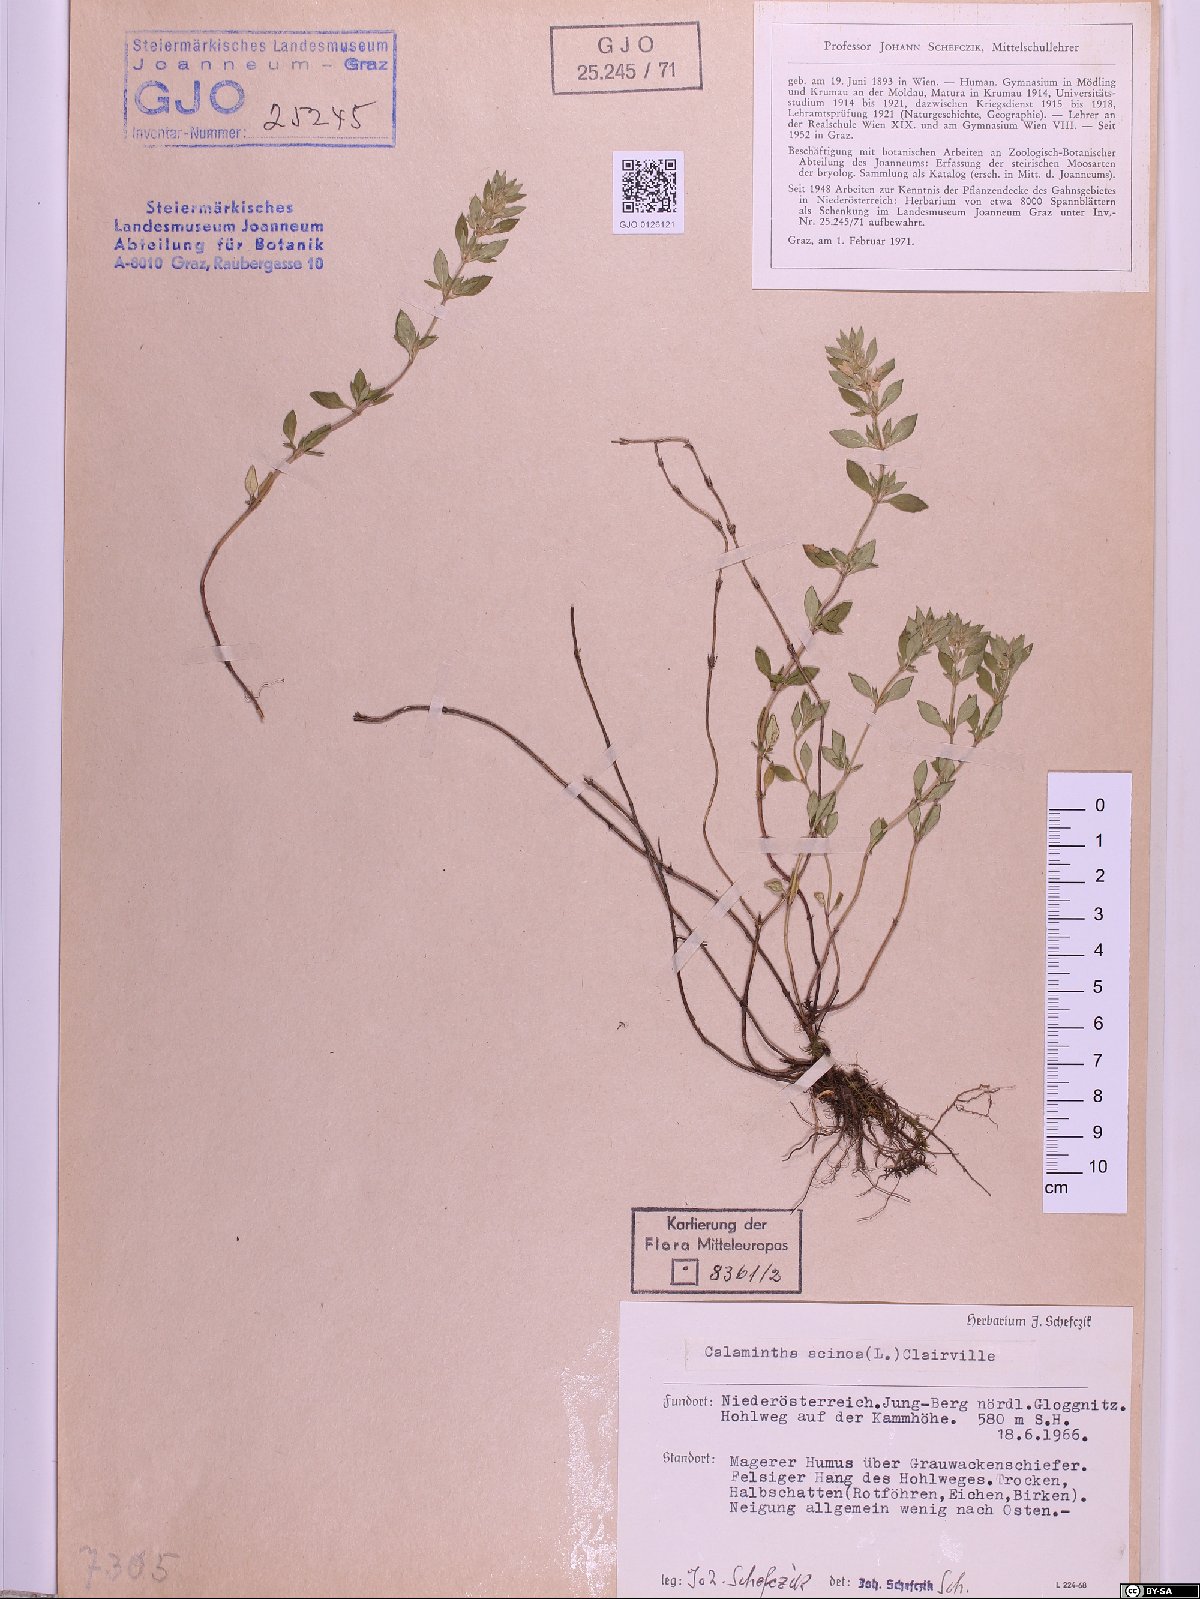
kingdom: Plantae
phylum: Tracheophyta
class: Magnoliopsida
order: Lamiales
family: Lamiaceae
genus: Clinopodium
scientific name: Clinopodium acinos
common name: Basil thyme
